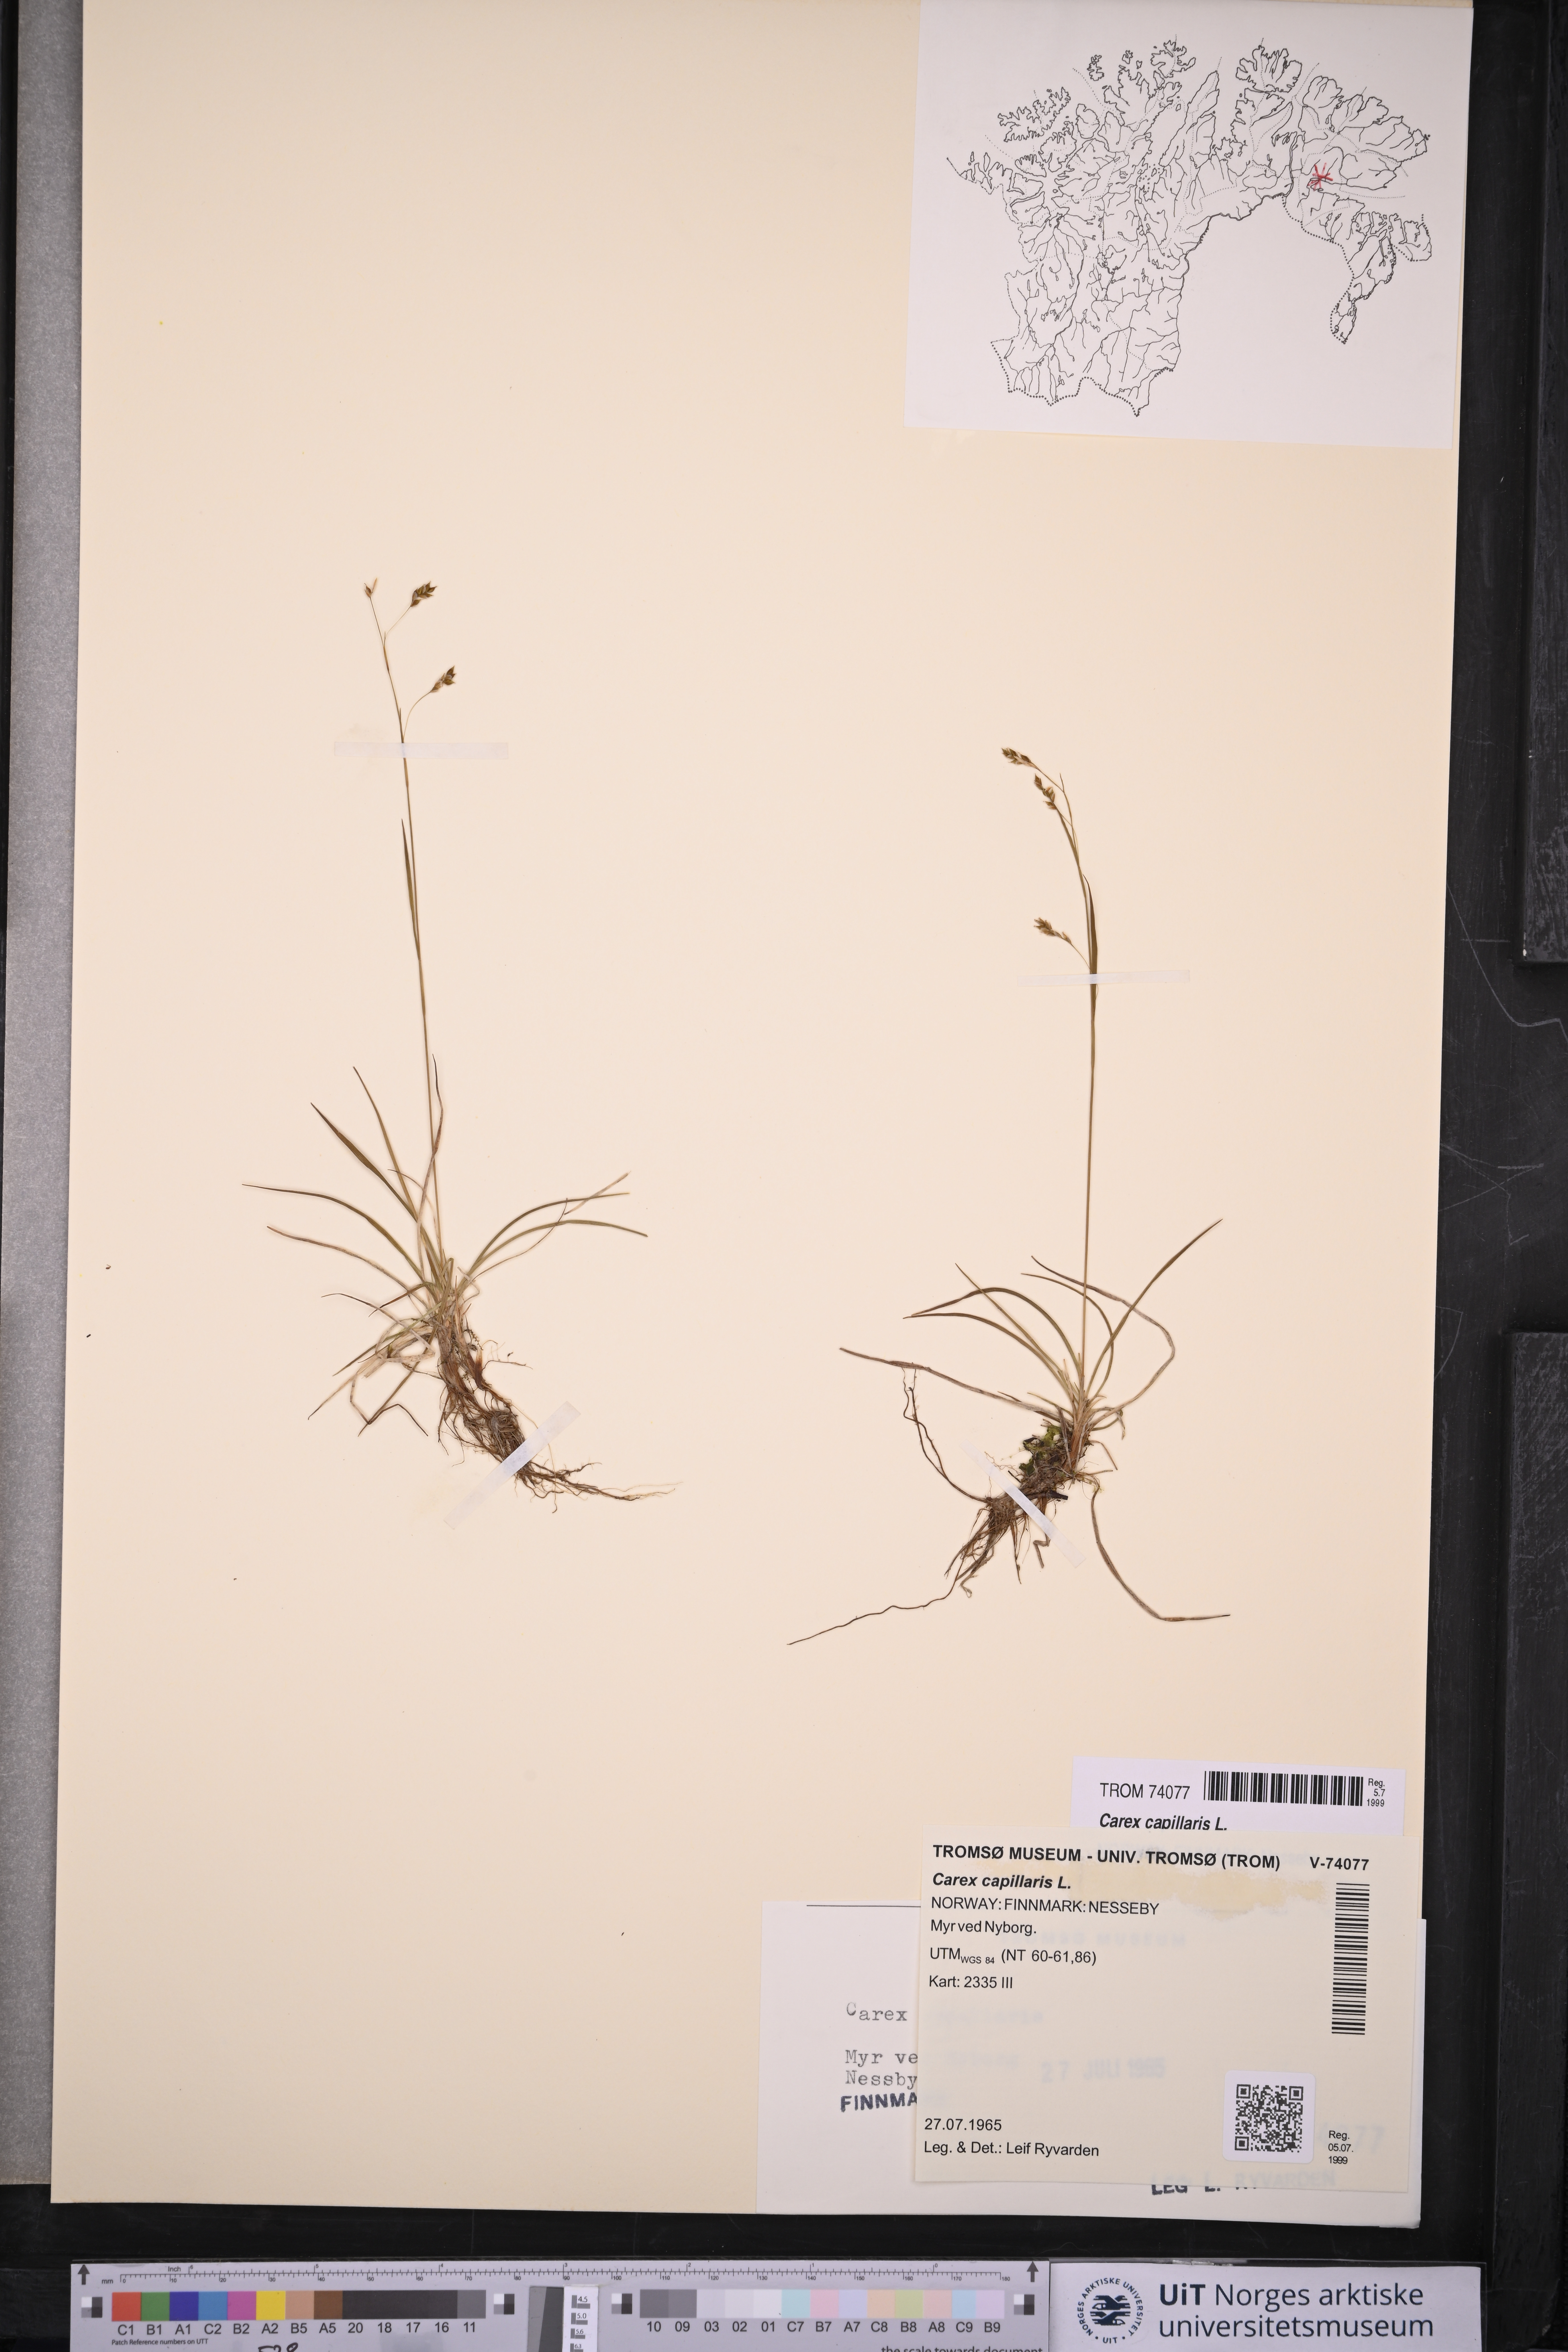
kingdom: Plantae
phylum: Tracheophyta
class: Liliopsida
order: Poales
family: Cyperaceae
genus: Carex
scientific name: Carex capillaris
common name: Hair sedge
